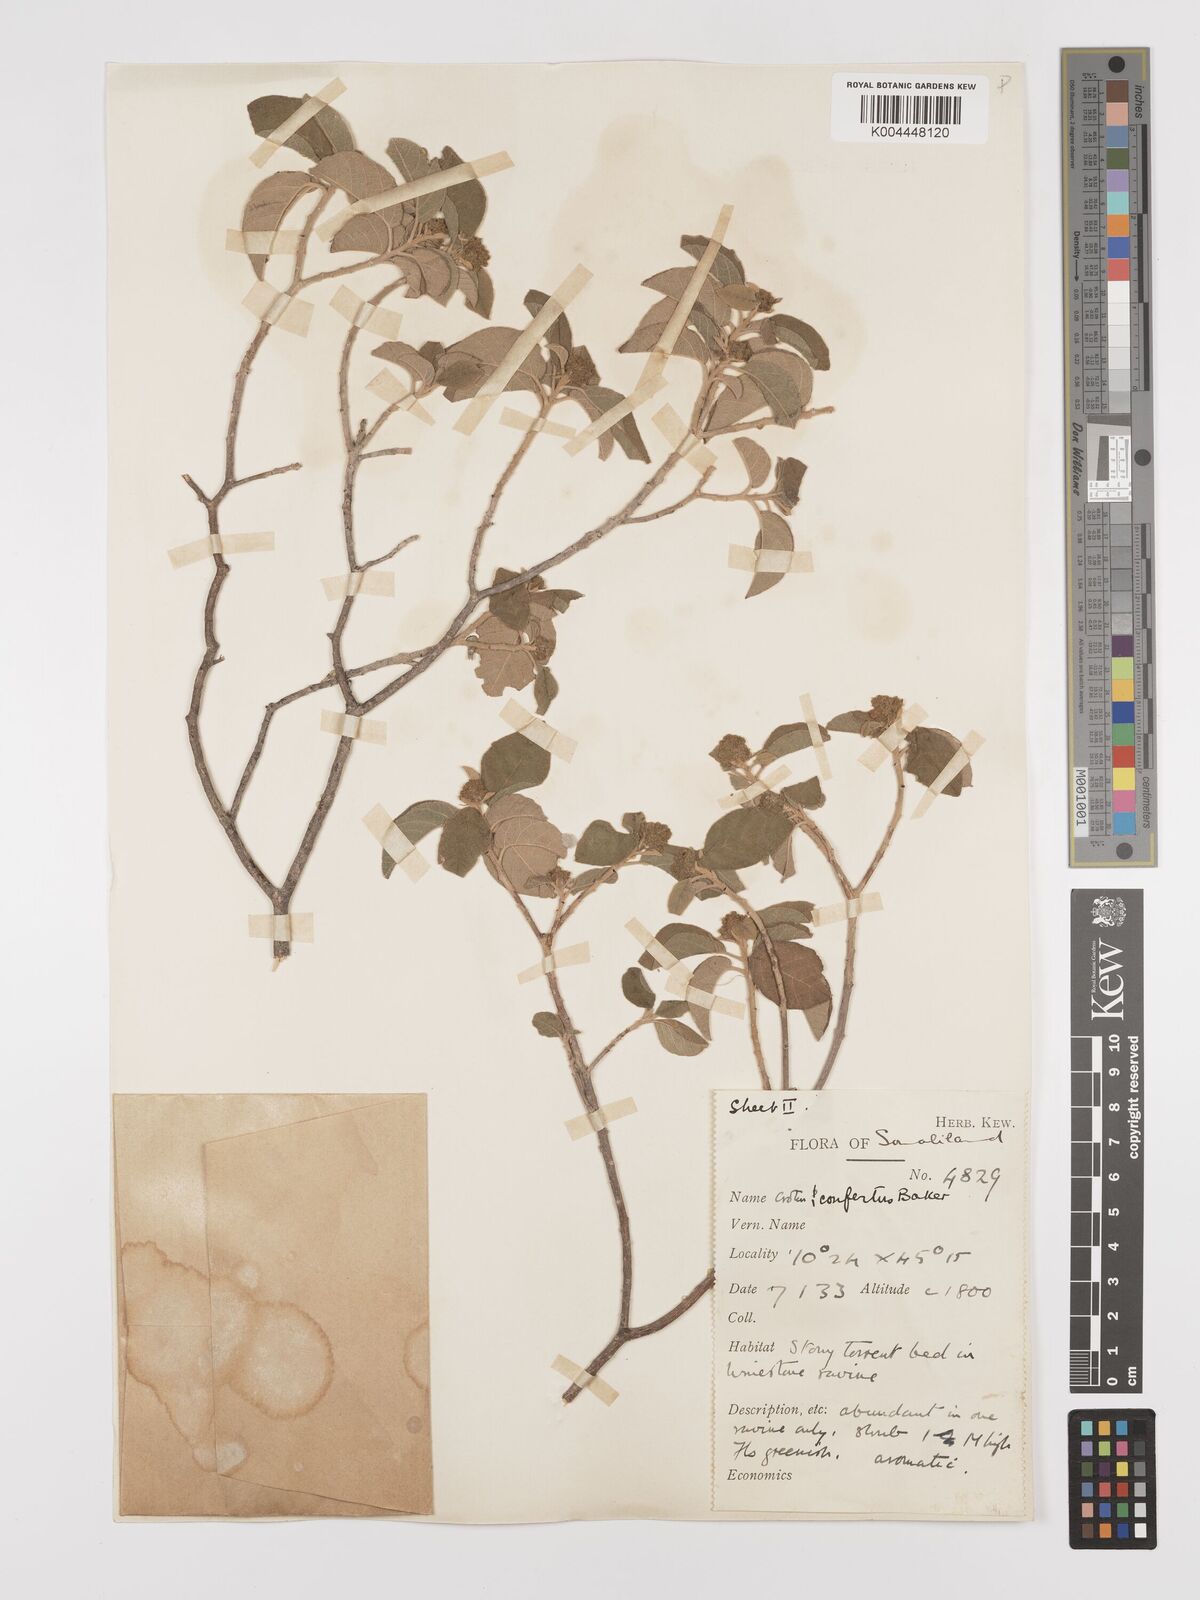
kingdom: Plantae
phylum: Tracheophyta
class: Magnoliopsida
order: Malpighiales
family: Euphorbiaceae
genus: Croton
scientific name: Croton confertus
